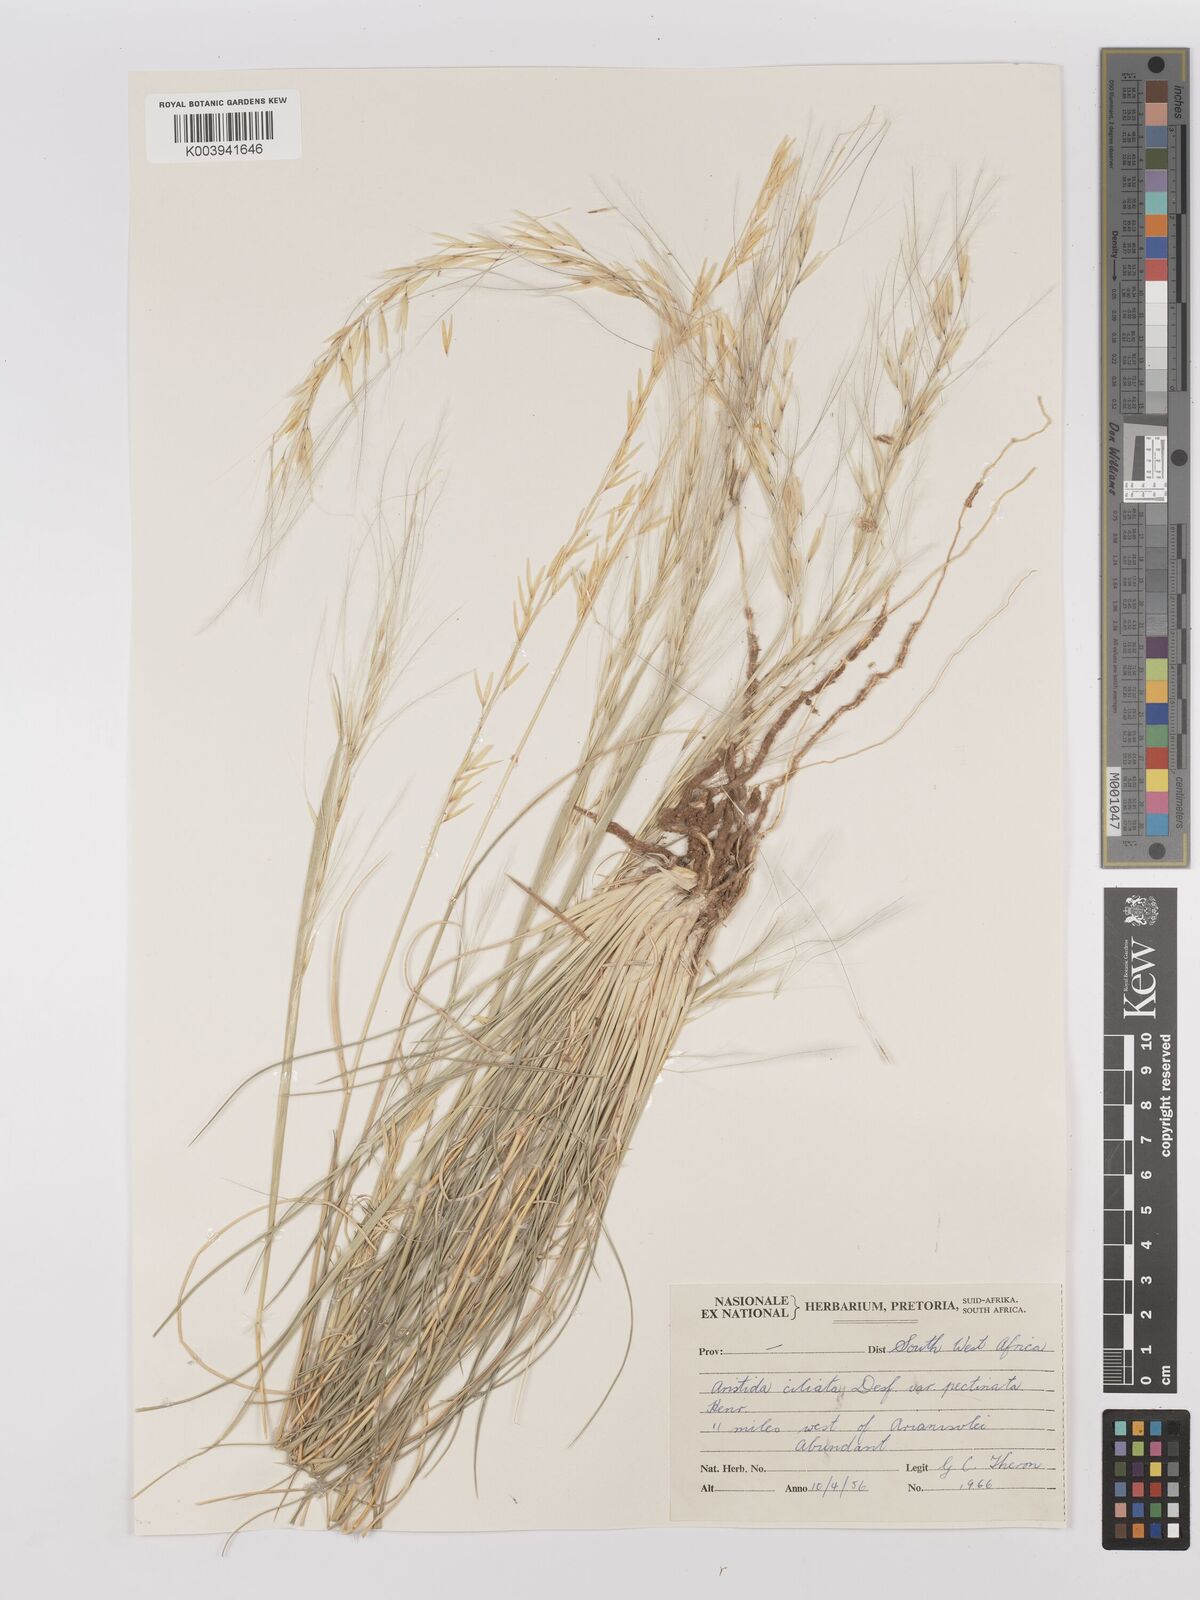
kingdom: Plantae
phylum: Tracheophyta
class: Liliopsida
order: Poales
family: Poaceae
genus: Stipagrostis
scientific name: Stipagrostis ciliata
